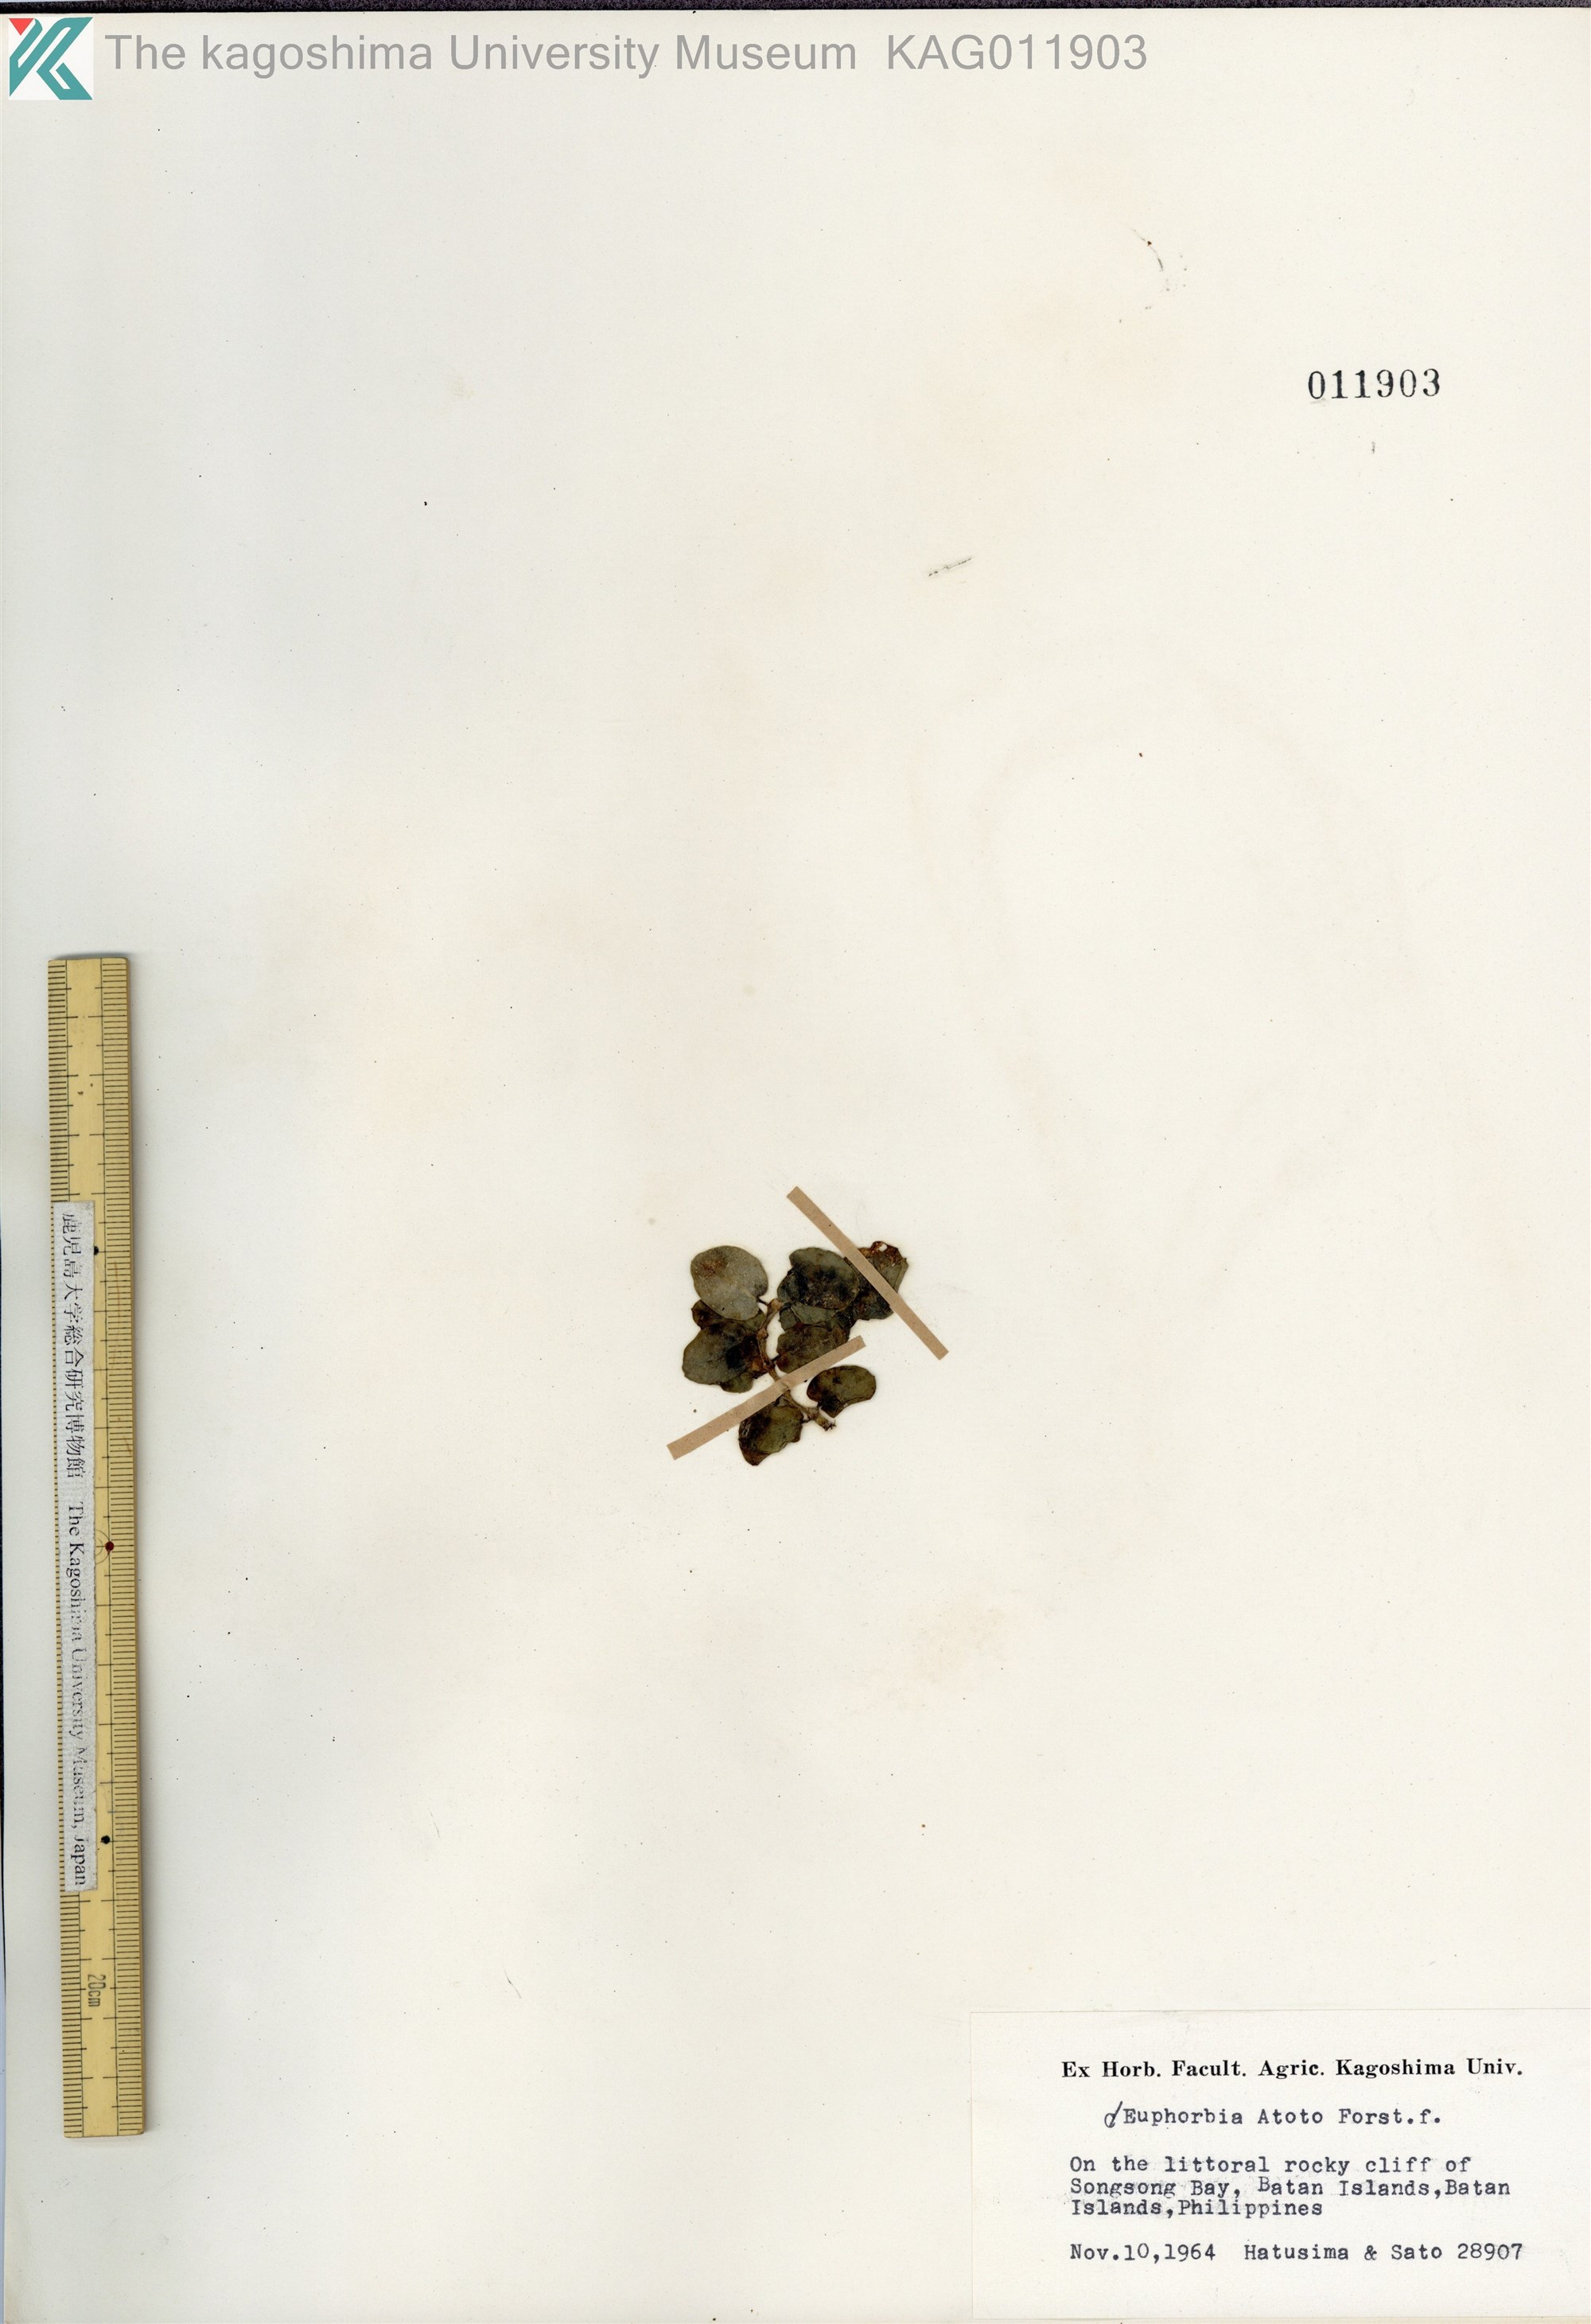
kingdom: Plantae
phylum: Tracheophyta
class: Magnoliopsida
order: Malpighiales
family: Euphorbiaceae
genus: Euphorbia
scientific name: Euphorbia chamissonis
